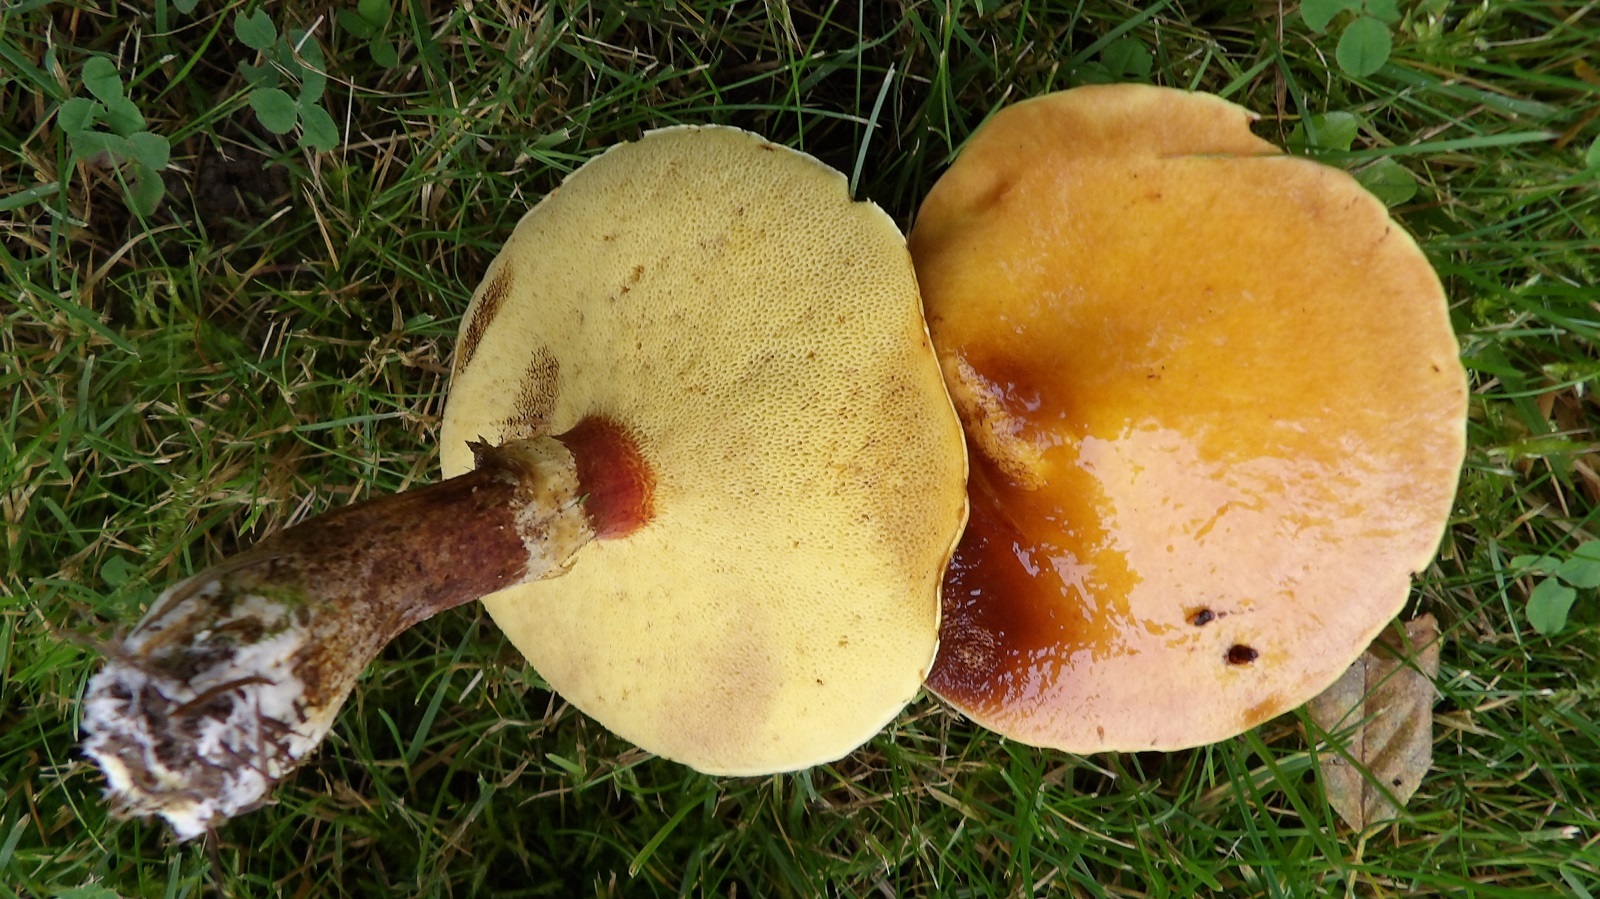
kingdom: Fungi
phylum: Basidiomycota
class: Agaricomycetes
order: Boletales
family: Suillaceae
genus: Suillus
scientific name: Suillus grevillei
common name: lærke-slimrørhat
